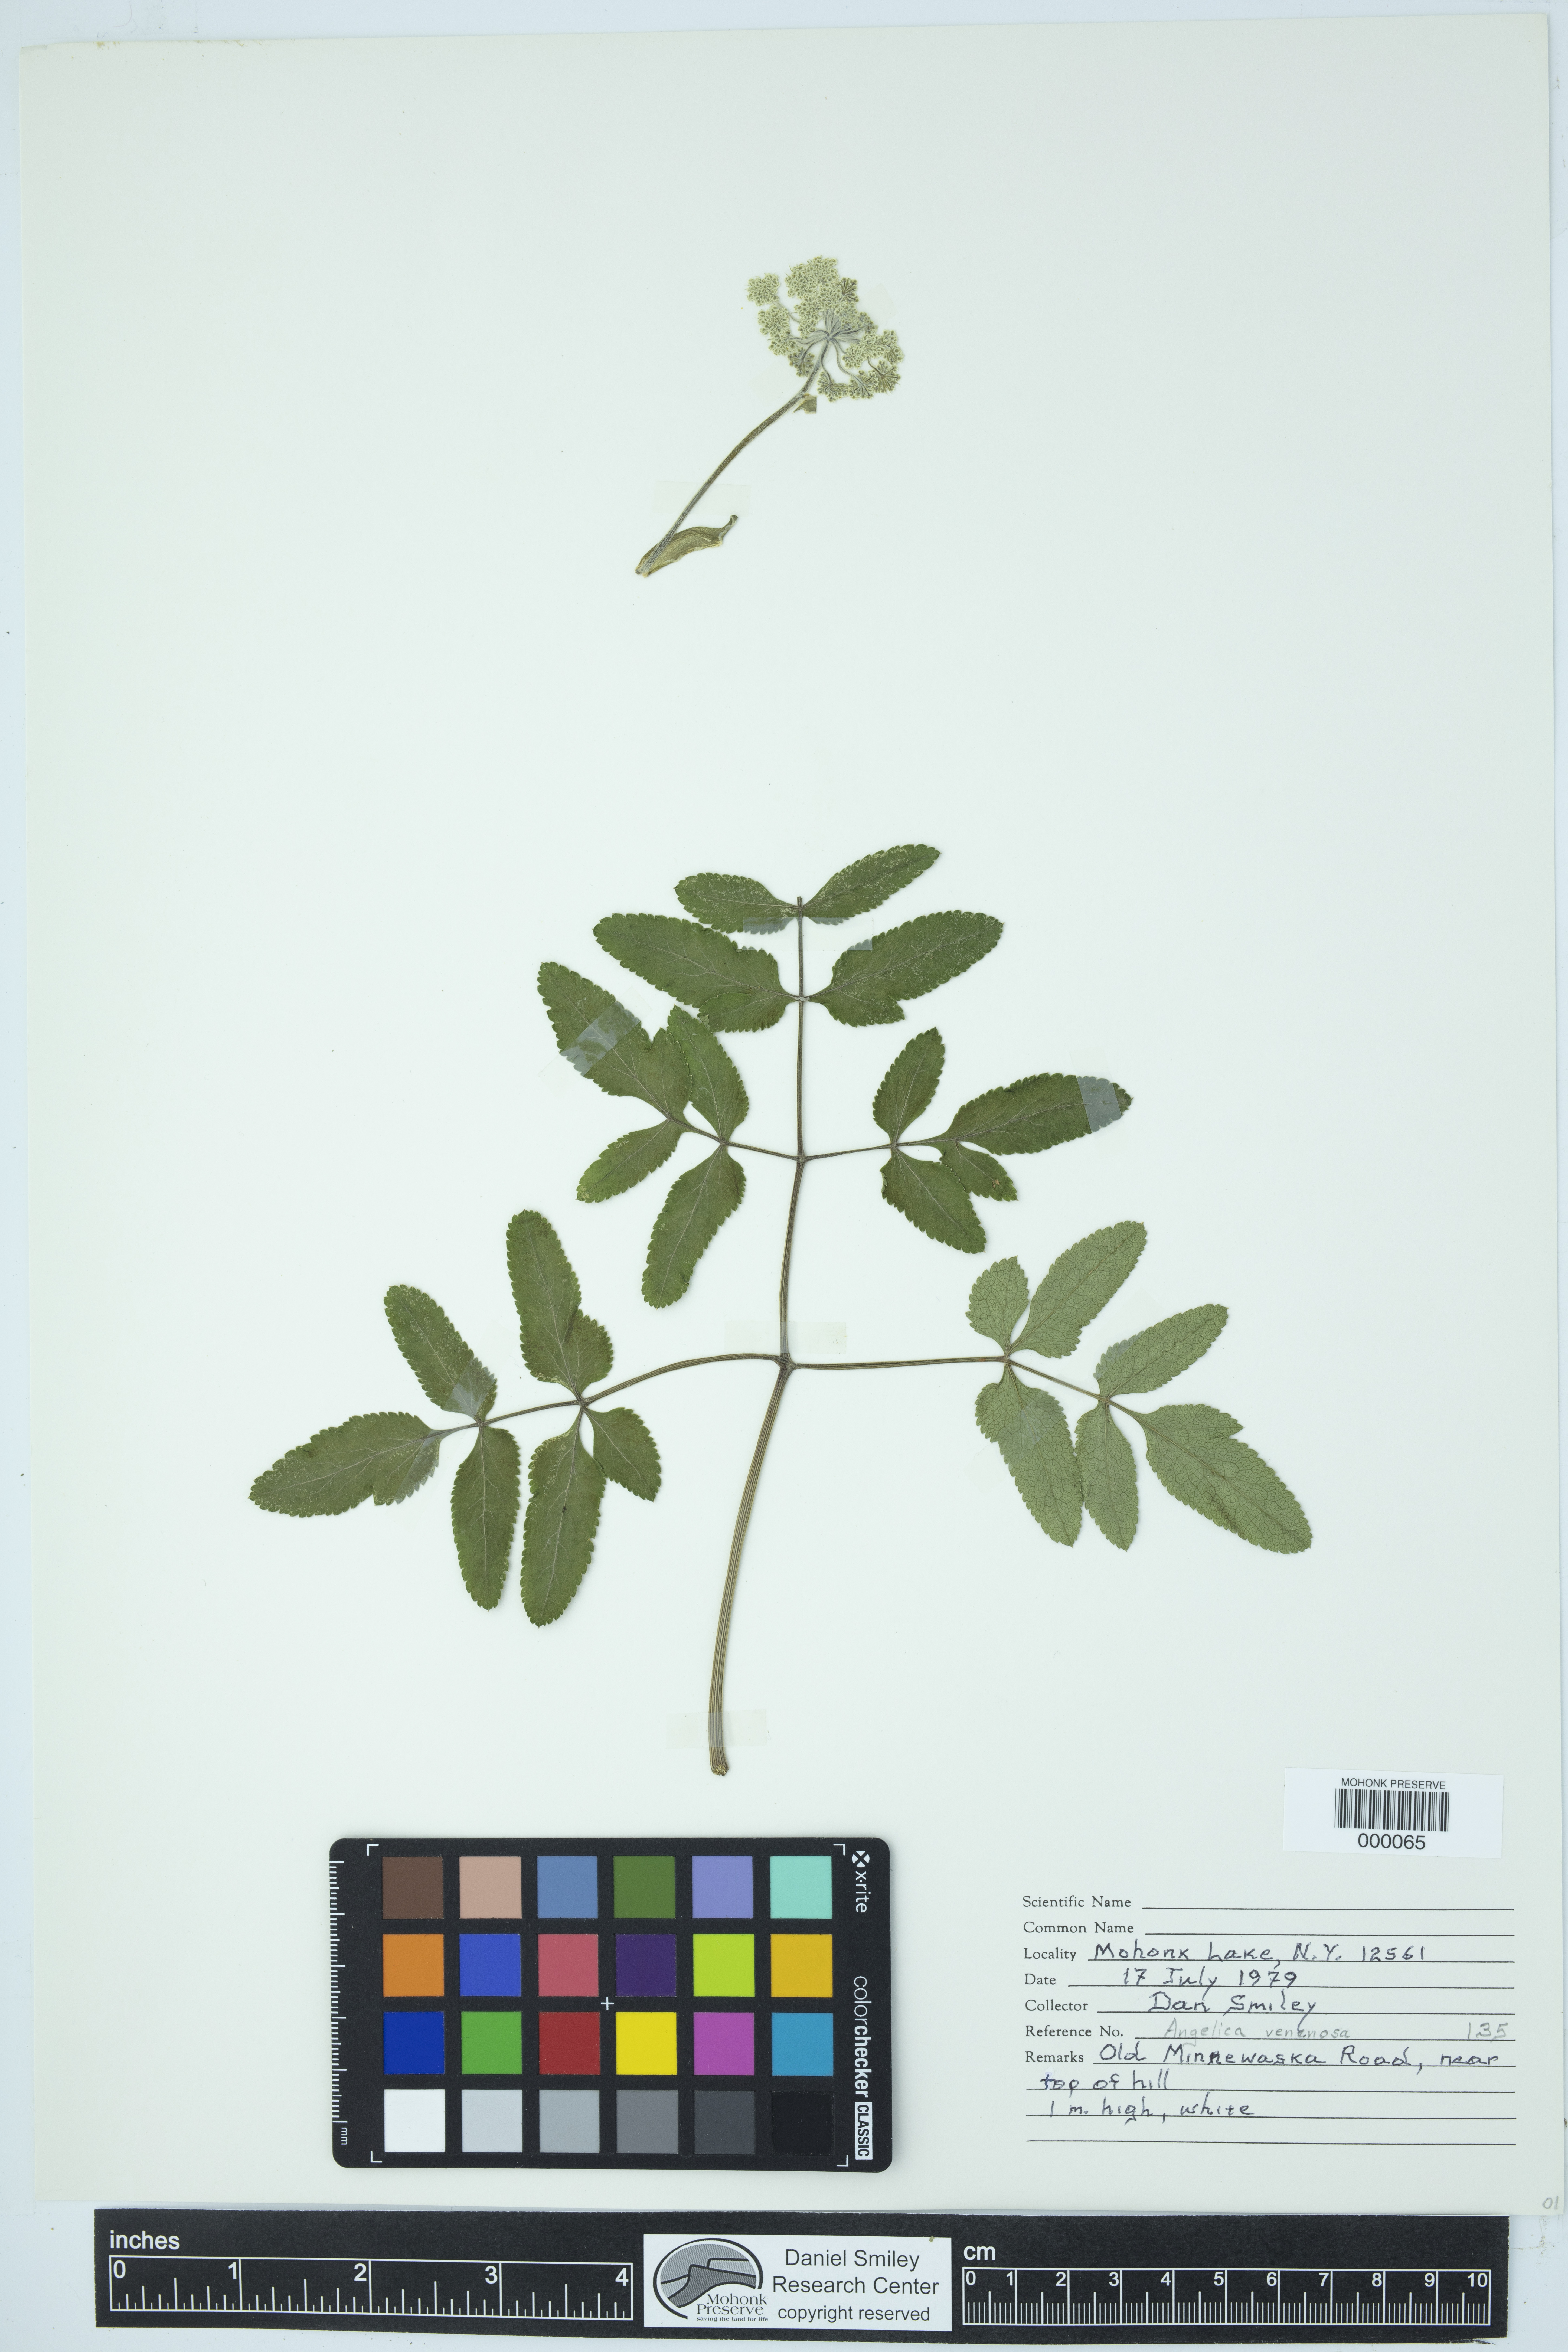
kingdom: Plantae
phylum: Tracheophyta
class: Magnoliopsida
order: Apiales
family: Apiaceae
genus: Angelica
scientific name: Angelica venenosa
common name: Hairy angelica
